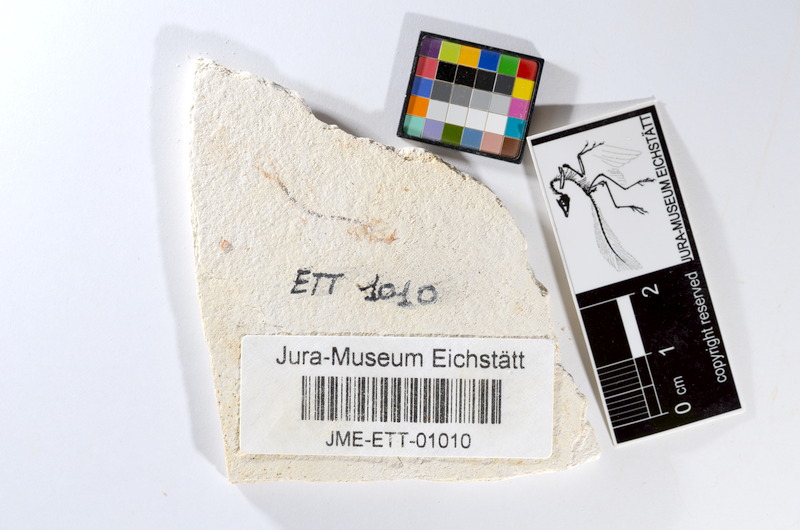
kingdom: Animalia
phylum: Chordata
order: Salmoniformes
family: Orthogonikleithridae
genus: Orthogonikleithrus
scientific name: Orthogonikleithrus hoelli
